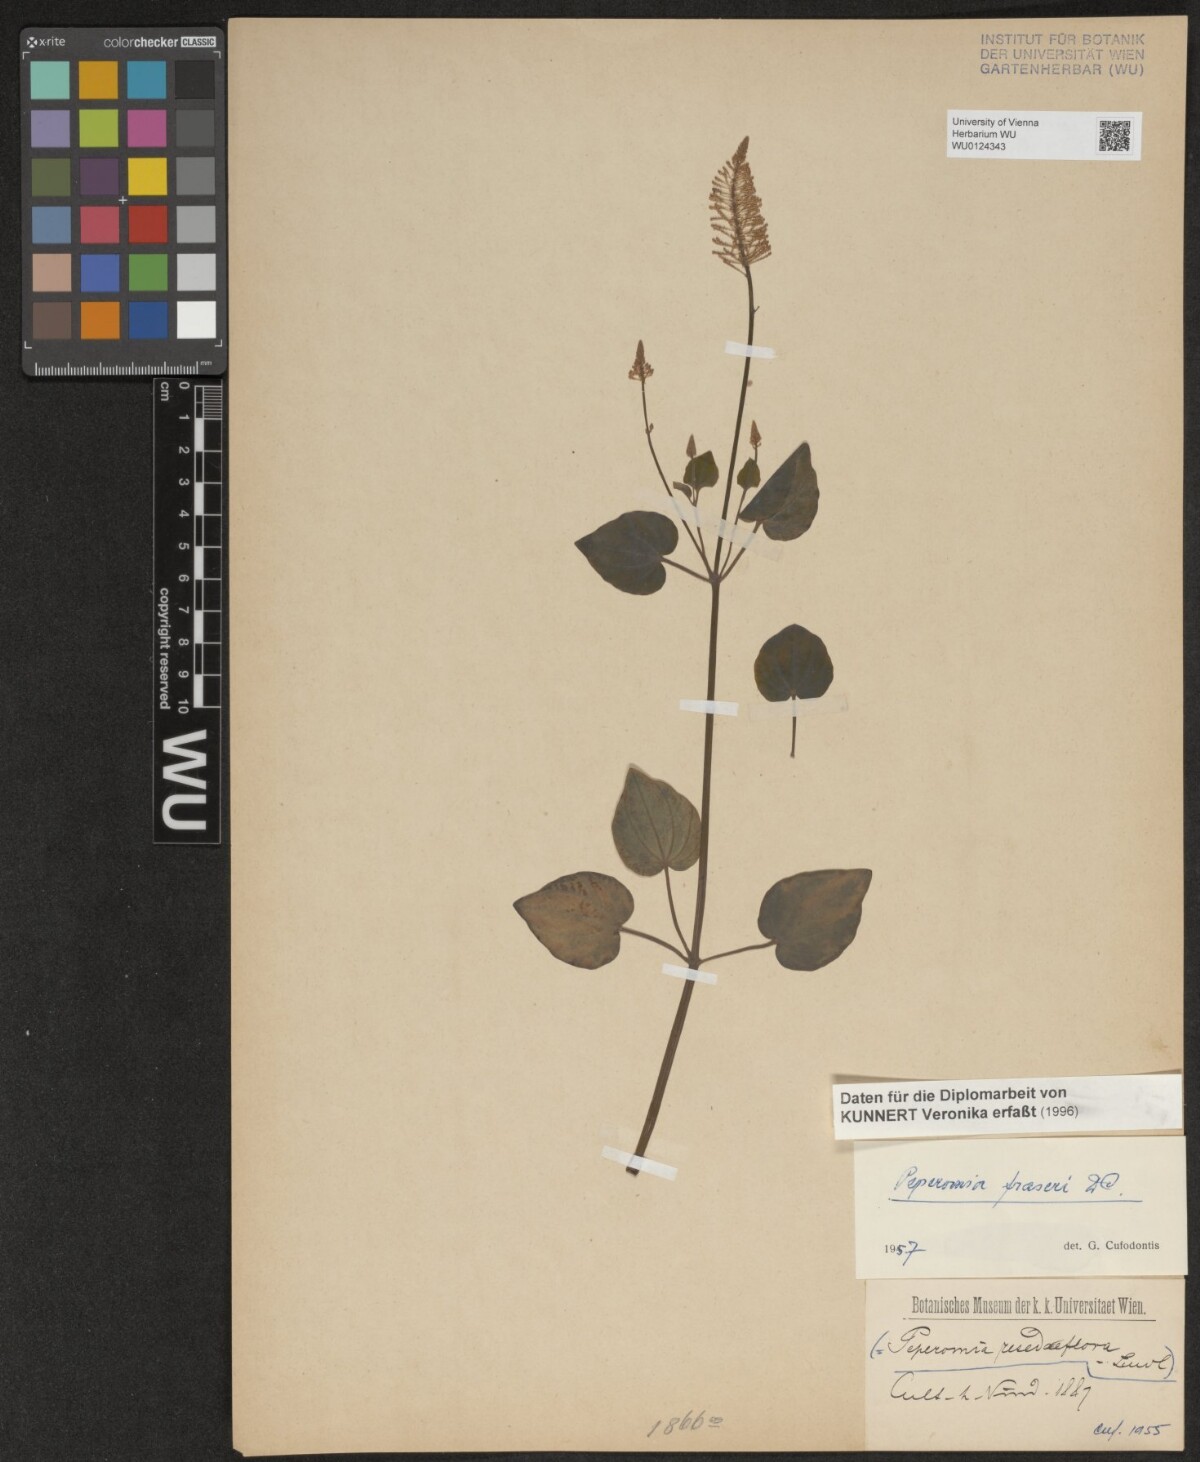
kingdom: Plantae
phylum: Tracheophyta
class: Magnoliopsida
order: Piperales
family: Piperaceae
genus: Peperomia
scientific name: Peperomia fraseri
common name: Mignonette peperomia
